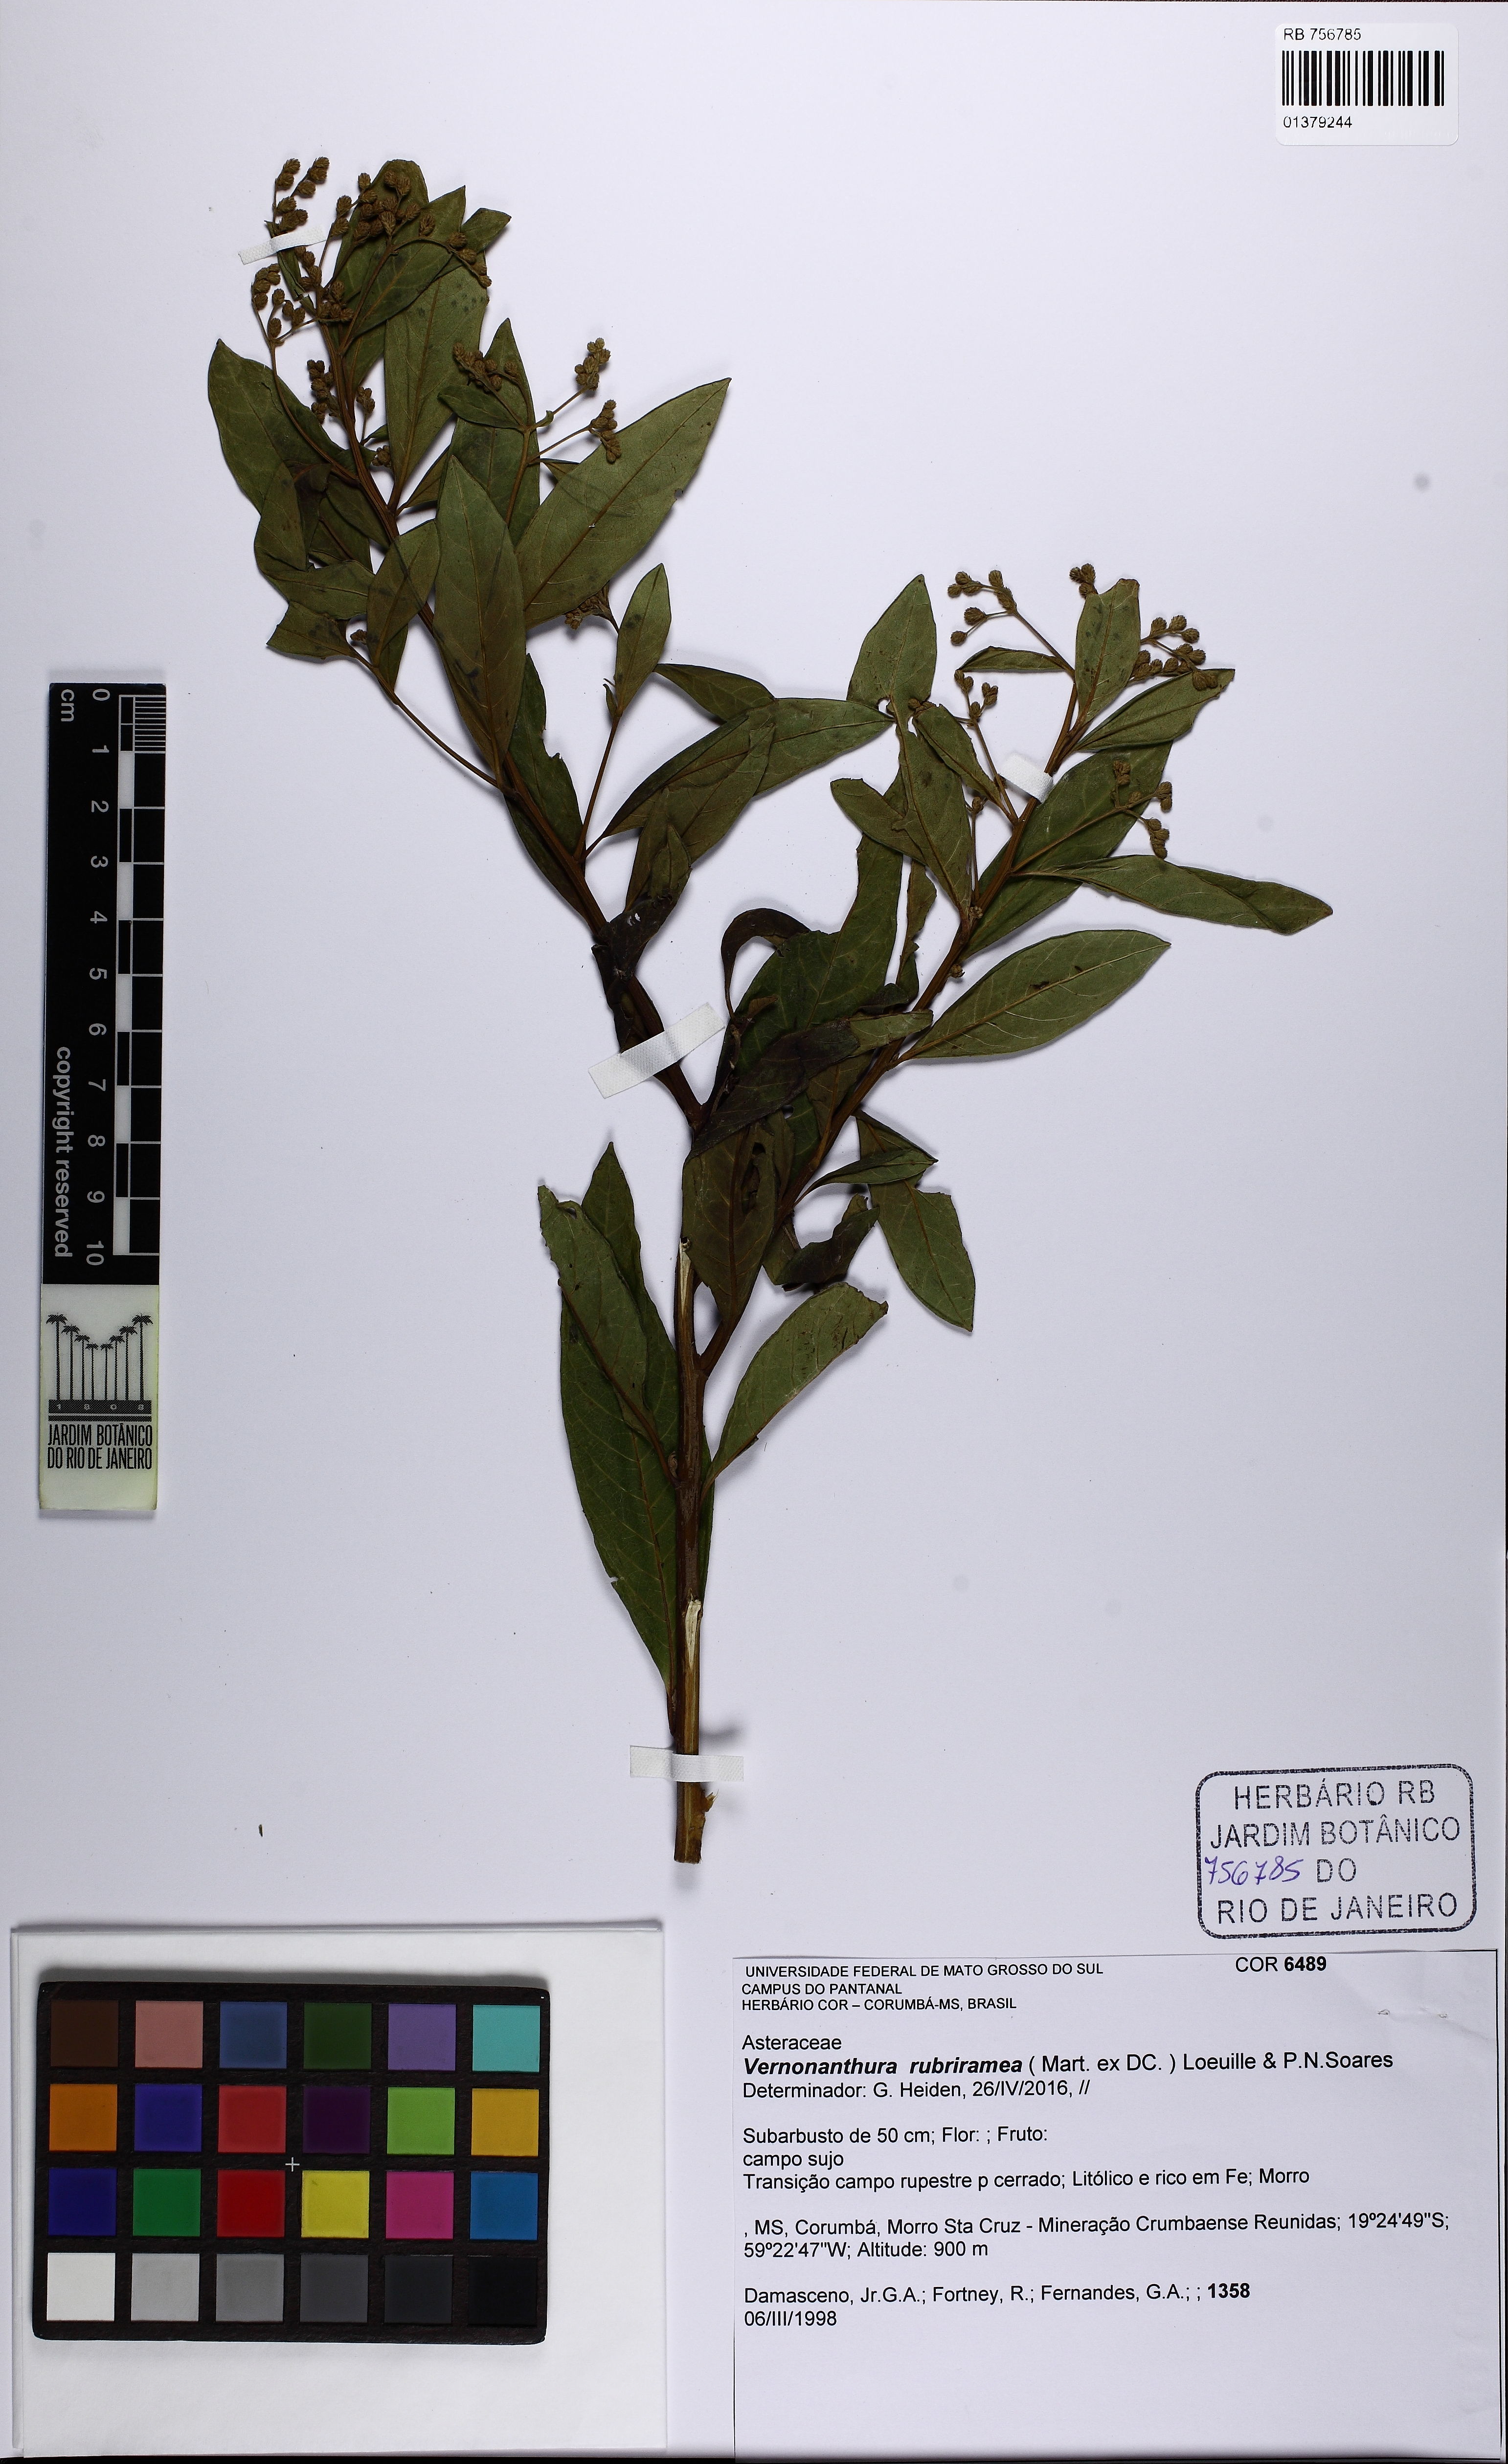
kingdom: Plantae
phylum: Tracheophyta
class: Magnoliopsida
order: Asterales
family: Asteraceae
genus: Vernonanthura
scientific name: Vernonanthura rubriramea
